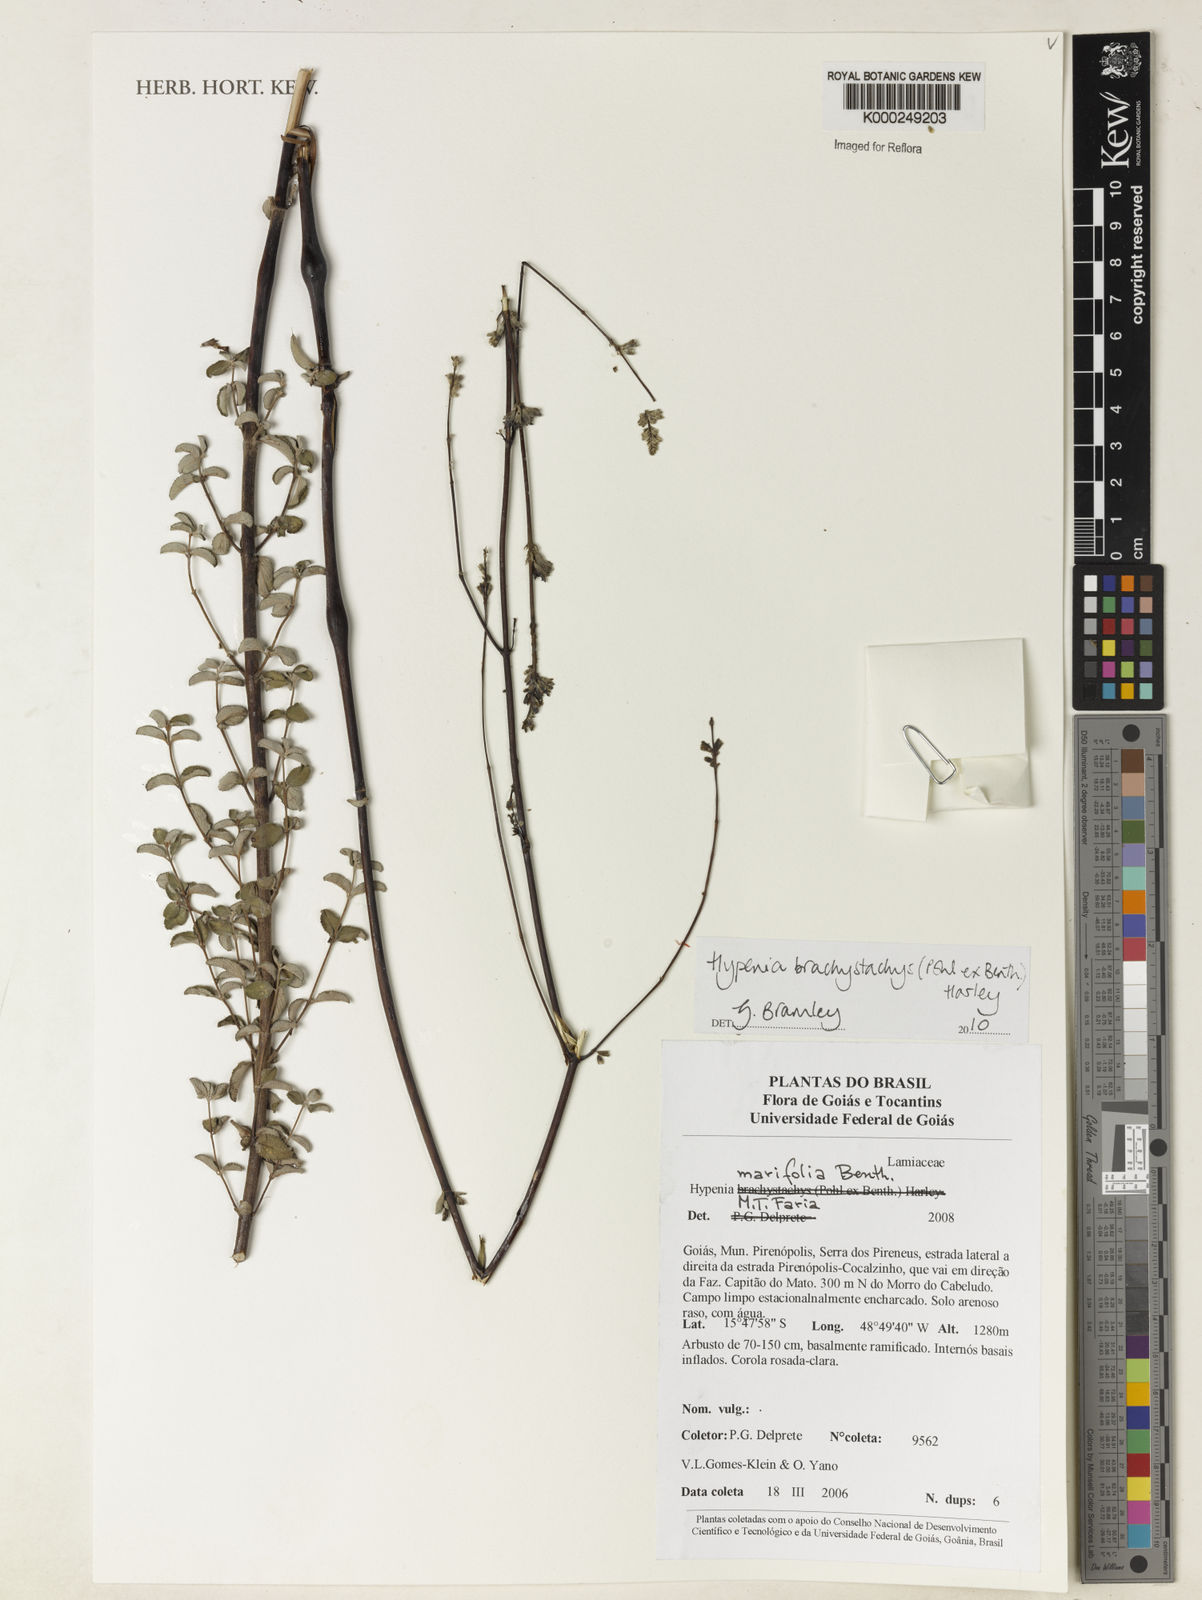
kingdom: Plantae
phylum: Tracheophyta
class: Magnoliopsida
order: Lamiales
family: Lamiaceae
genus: Hypenia
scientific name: Hypenia marifolia
